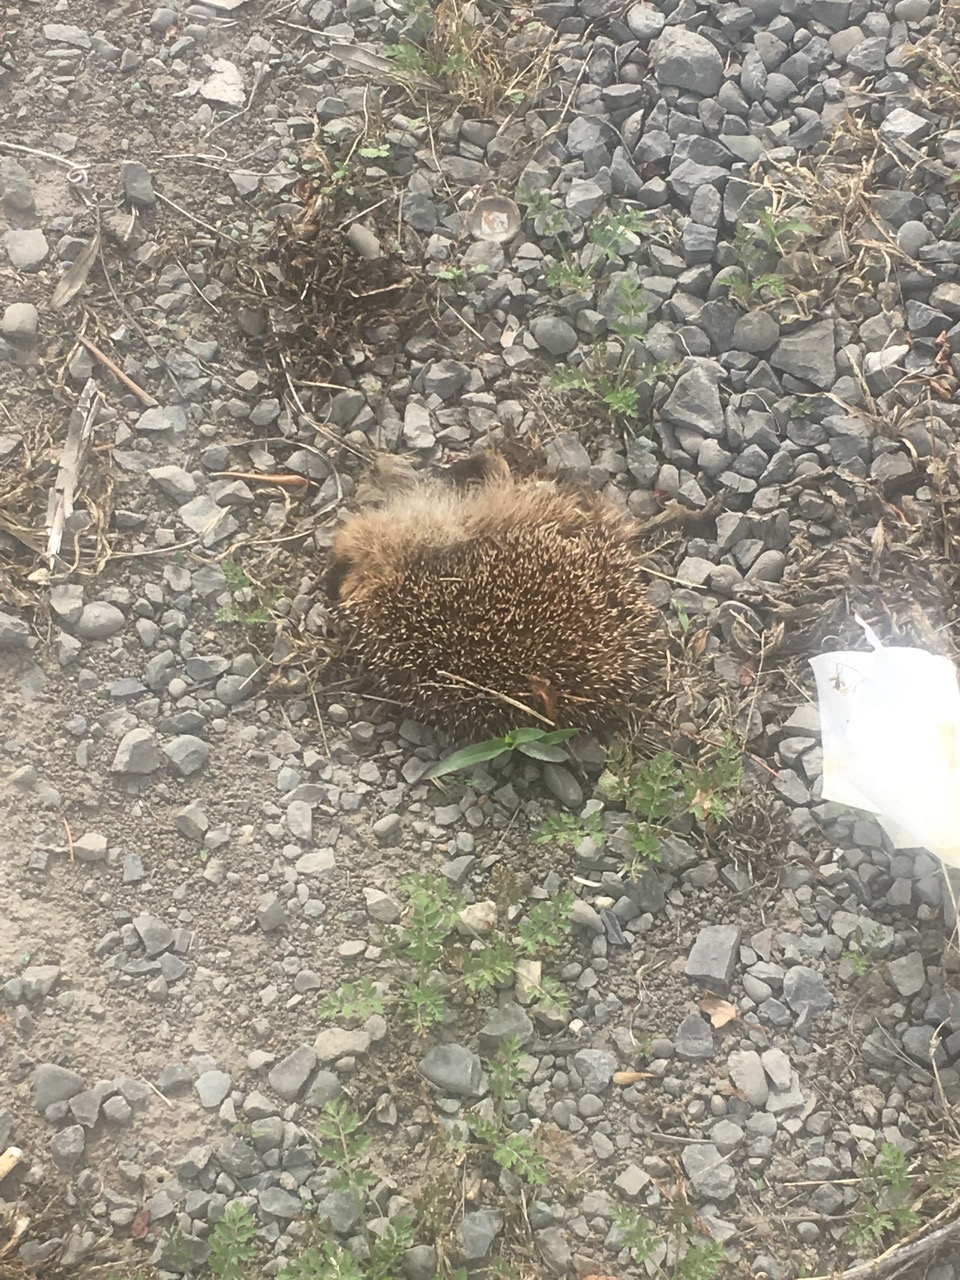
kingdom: Animalia
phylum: Chordata
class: Mammalia
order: Erinaceomorpha
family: Erinaceidae
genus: Erinaceus
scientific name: Erinaceus
